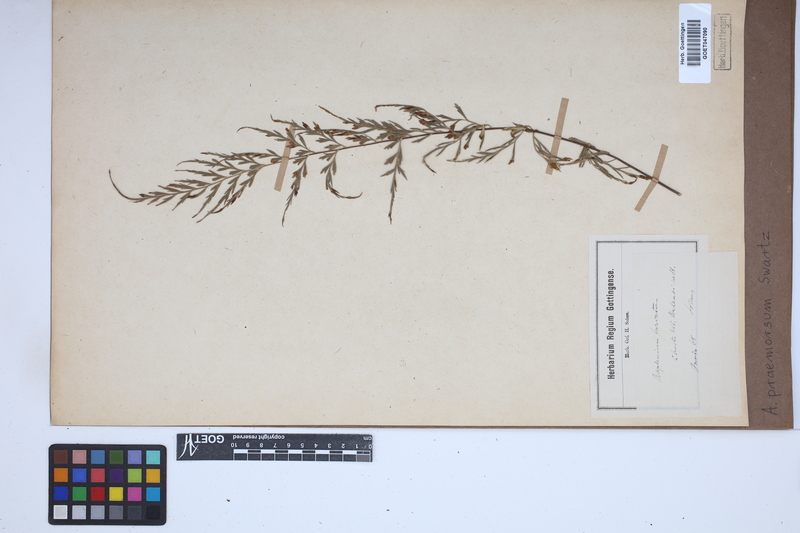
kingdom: Plantae
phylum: Tracheophyta
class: Polypodiopsida
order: Polypodiales
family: Aspleniaceae
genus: Asplenium
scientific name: Asplenium praemorsum
